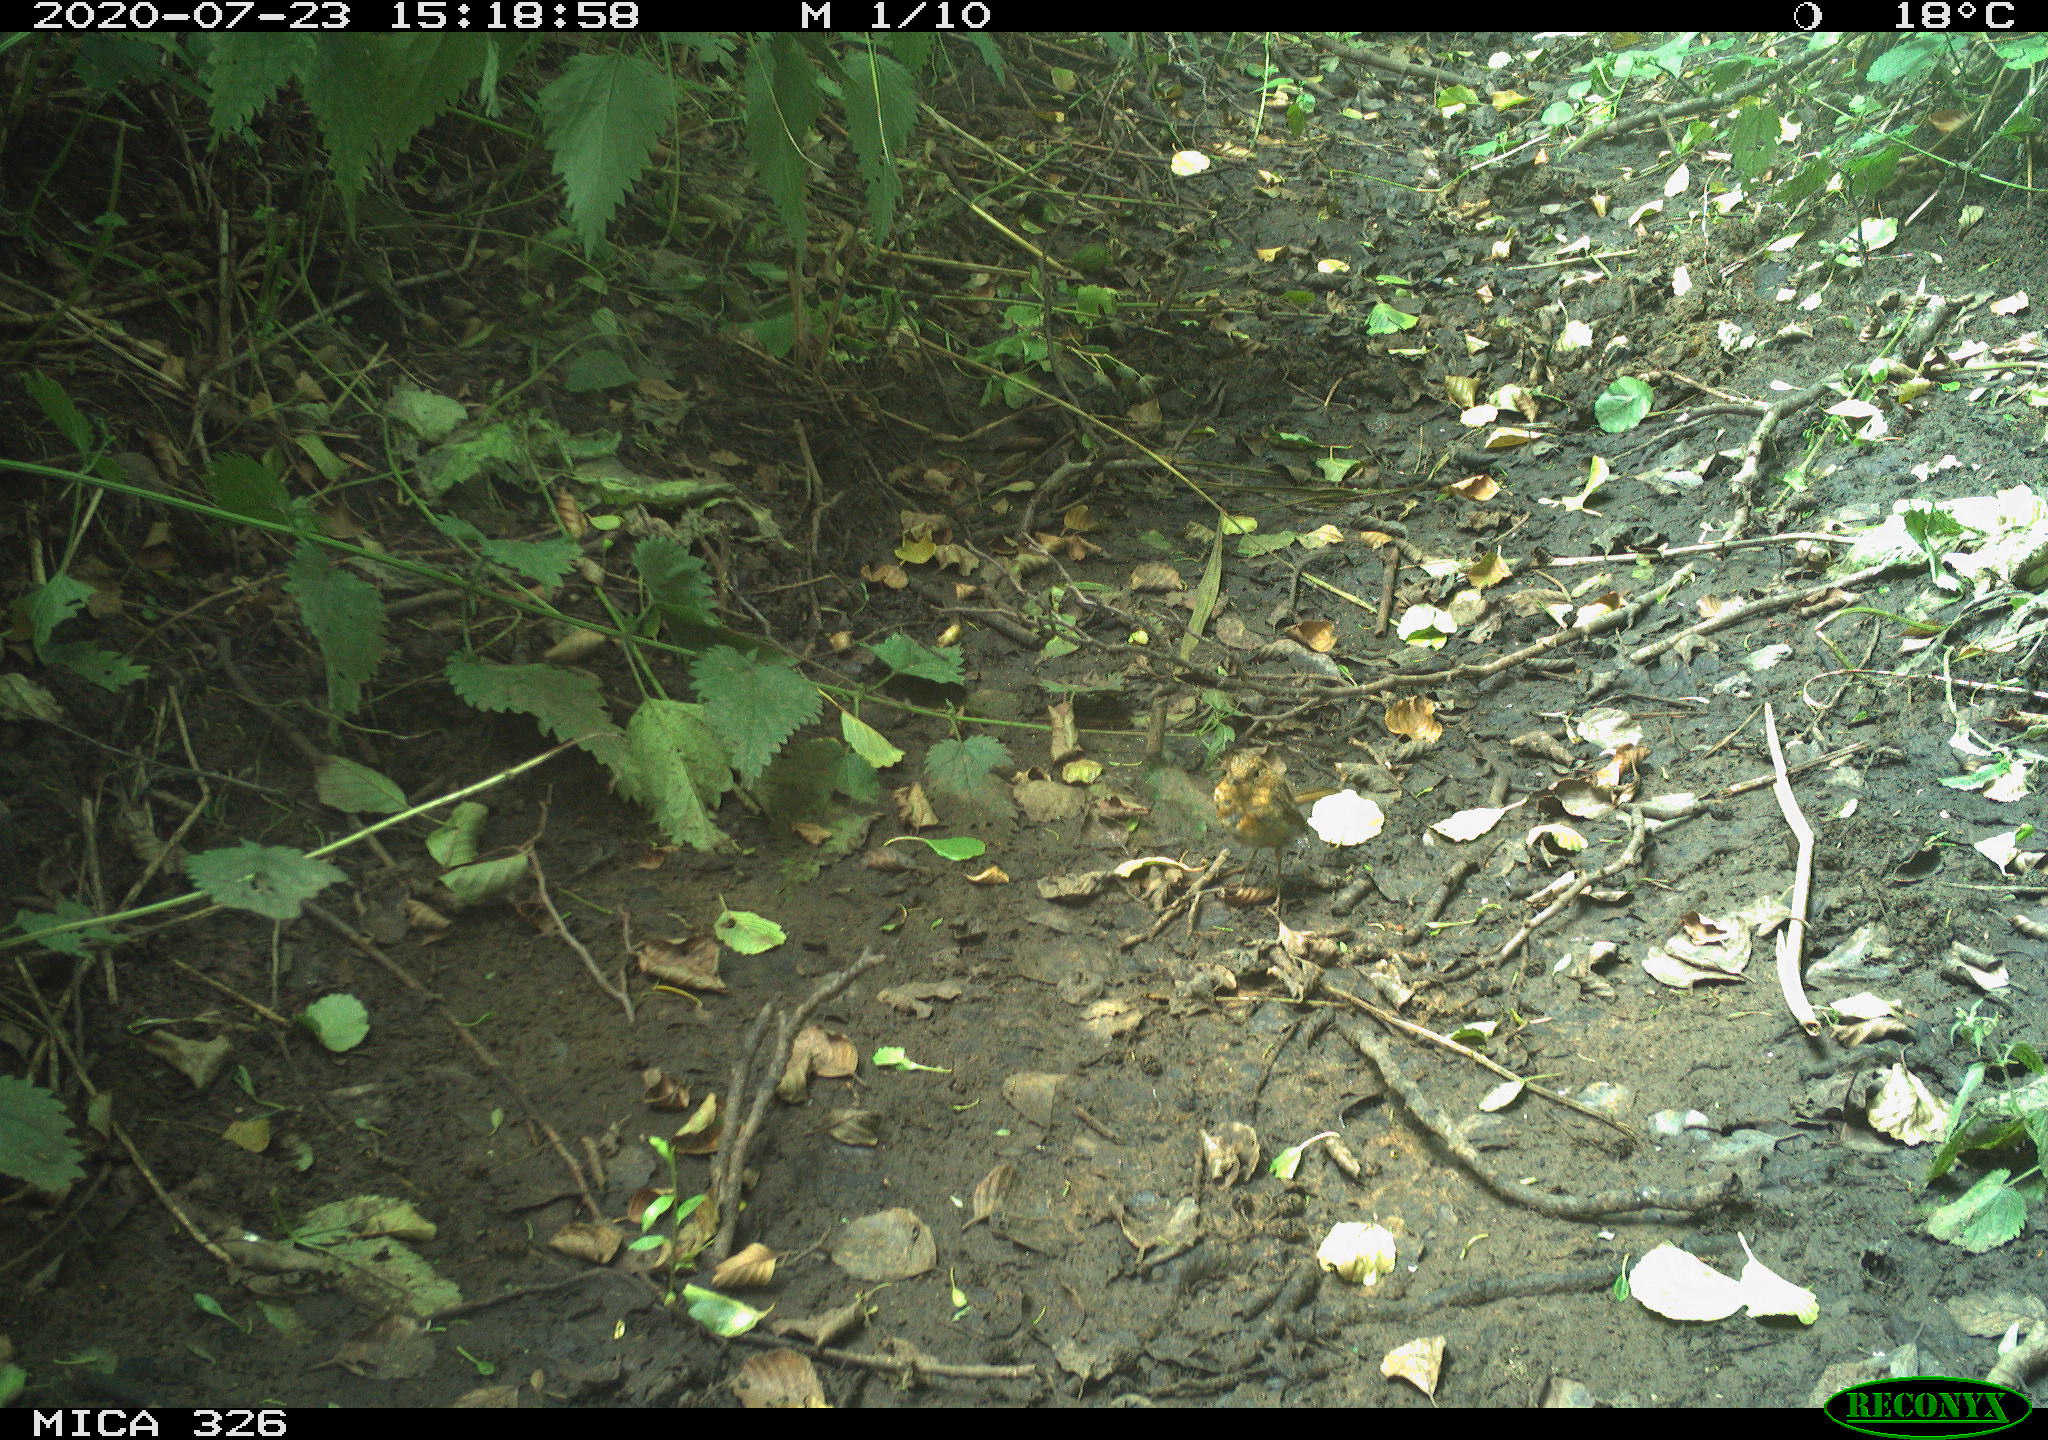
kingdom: Animalia
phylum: Chordata
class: Aves
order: Passeriformes
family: Muscicapidae
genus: Erithacus
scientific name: Erithacus rubecula
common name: European robin
